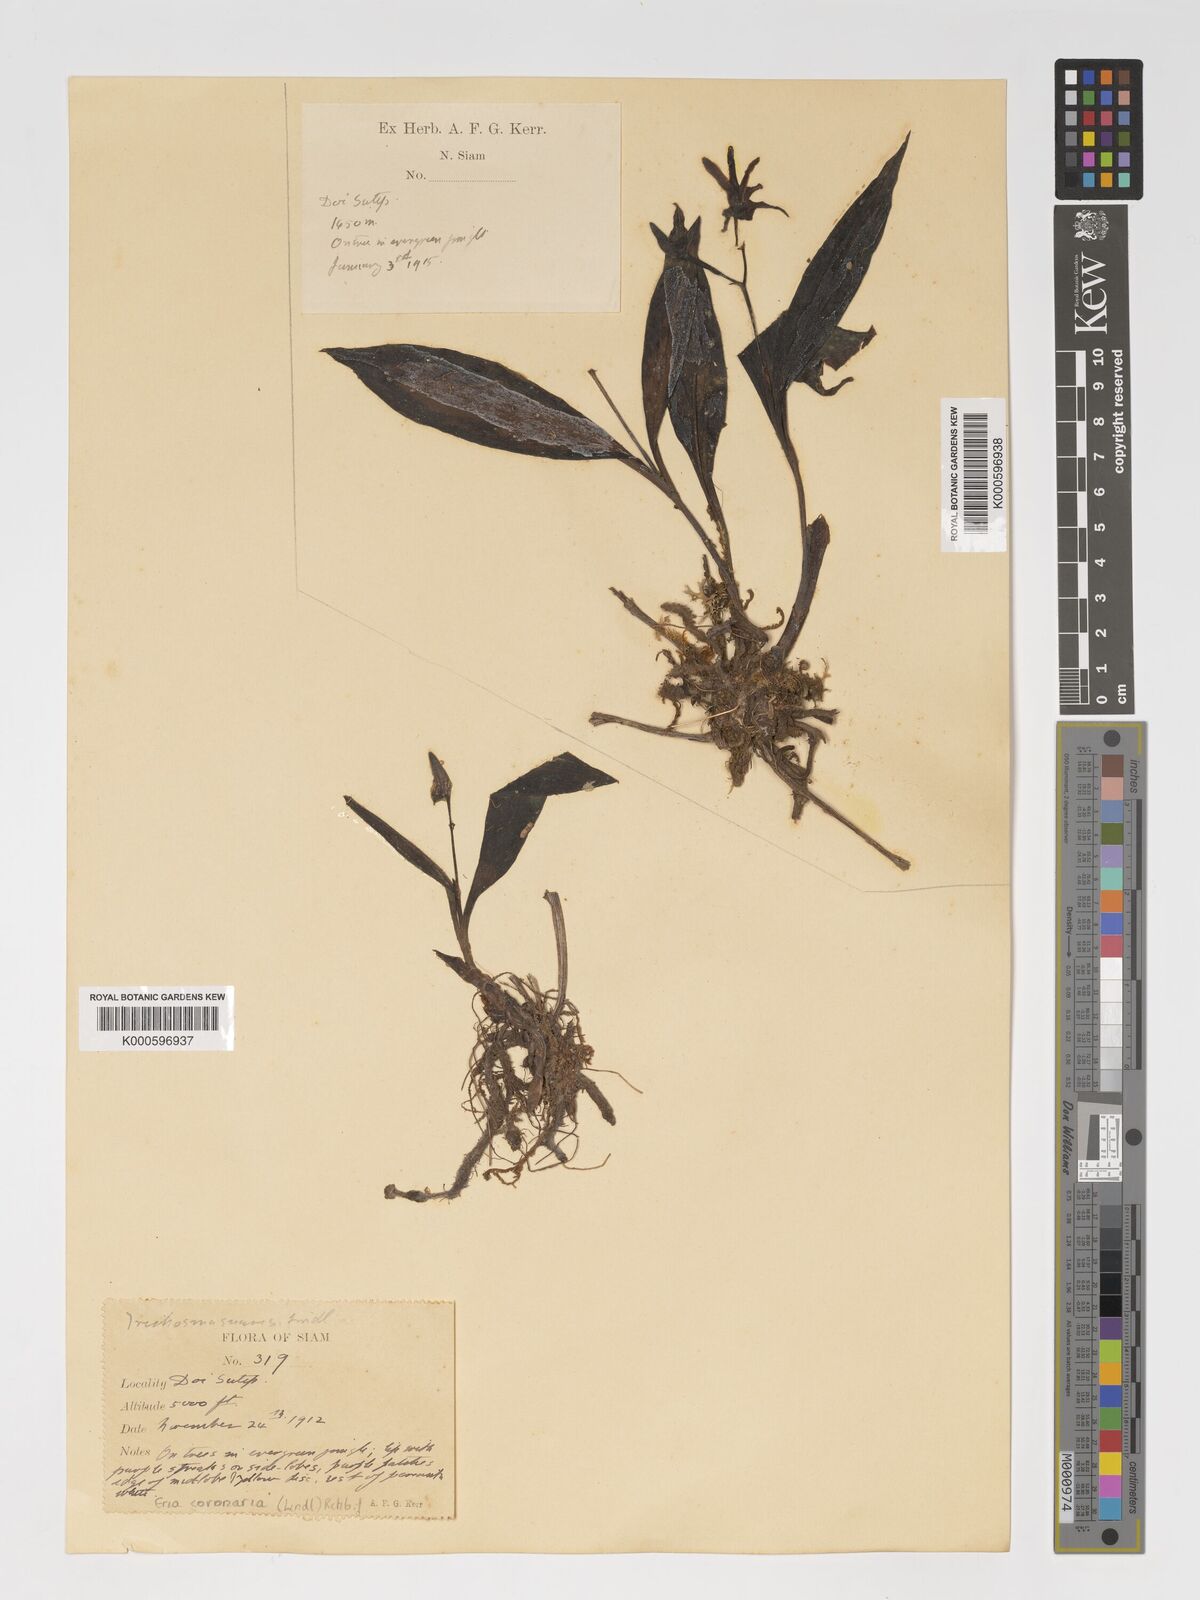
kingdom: Plantae
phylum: Tracheophyta
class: Liliopsida
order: Asparagales
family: Orchidaceae
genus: Eria
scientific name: Eria coronaria
